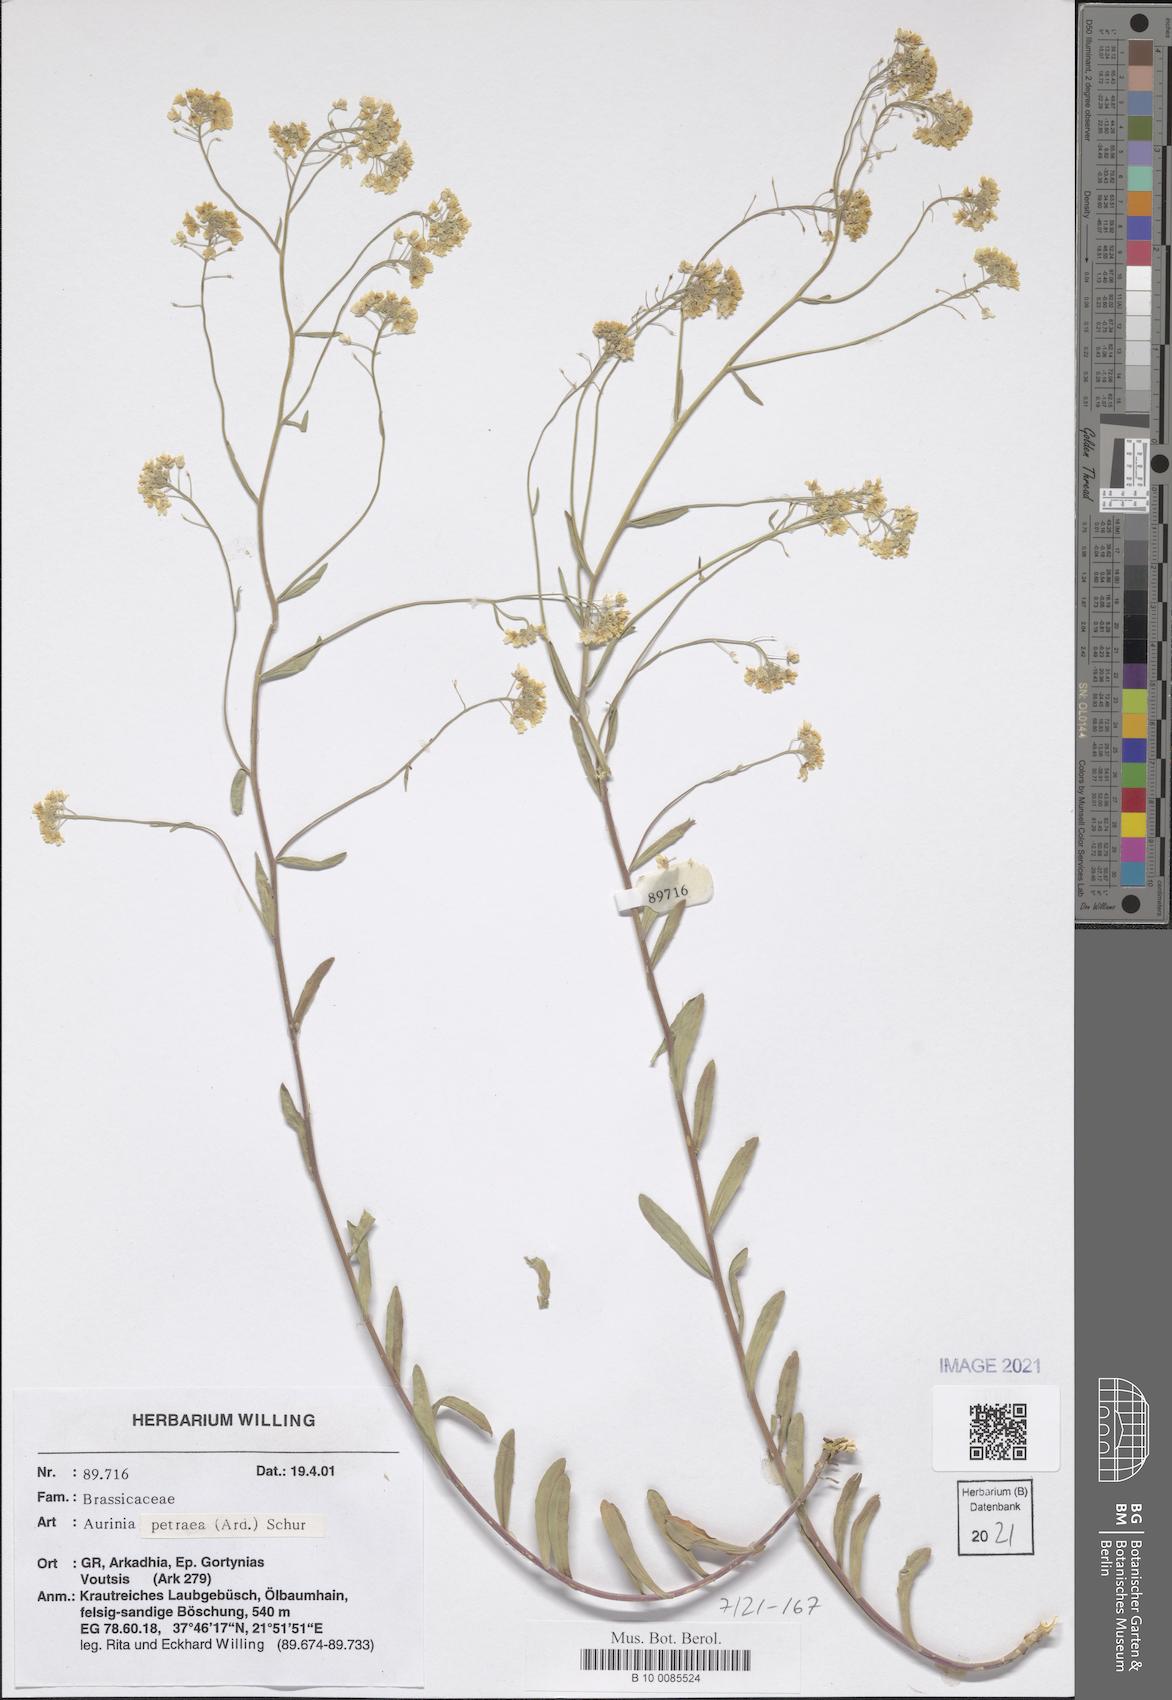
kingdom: Plantae
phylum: Tracheophyta
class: Magnoliopsida
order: Brassicales
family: Brassicaceae
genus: Aurinia
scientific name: Aurinia petraea
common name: Goldentuft
